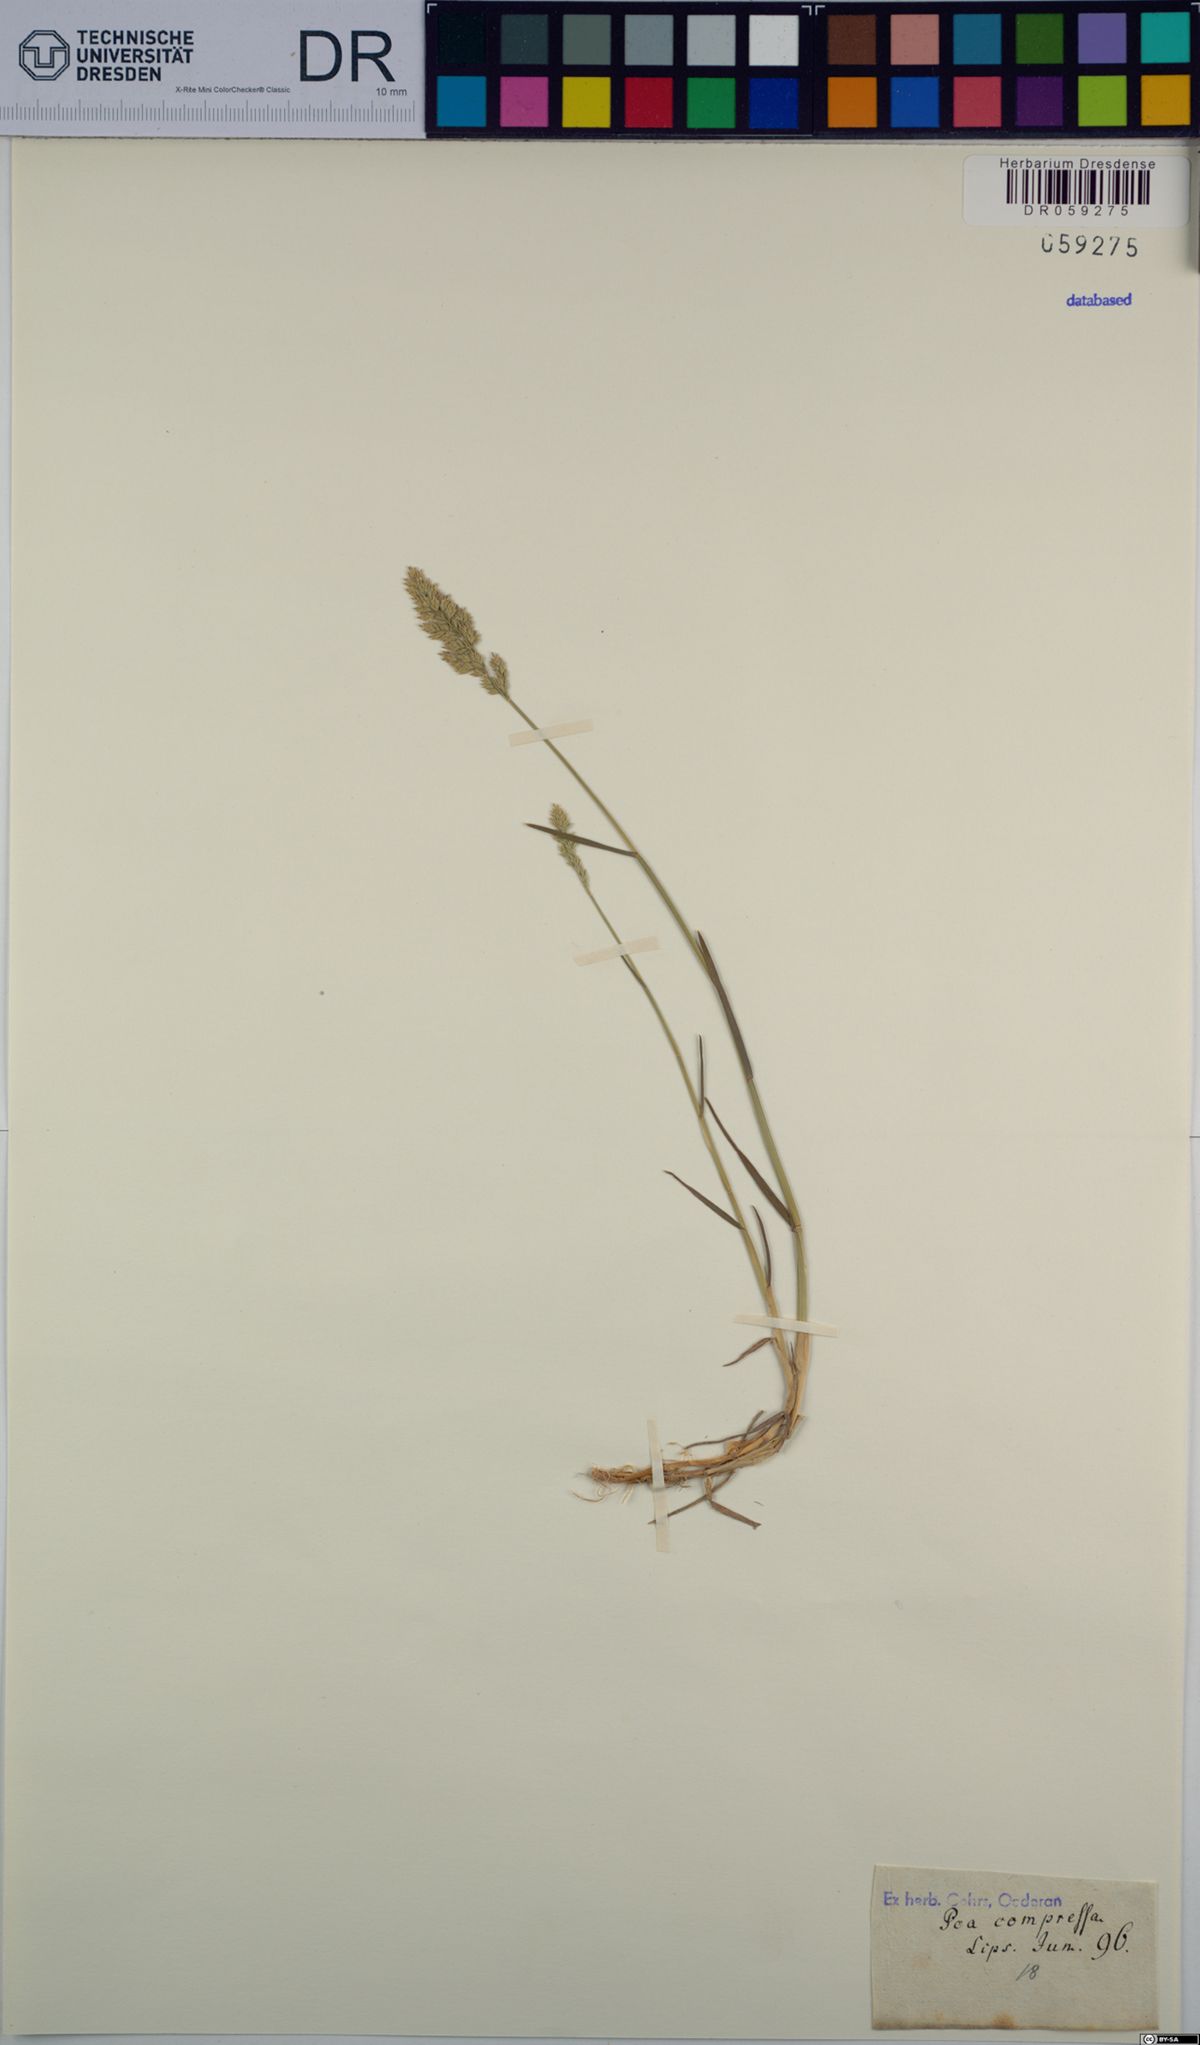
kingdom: Plantae
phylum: Tracheophyta
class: Liliopsida
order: Poales
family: Poaceae
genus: Poa
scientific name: Poa compressa
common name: Canada bluegrass
